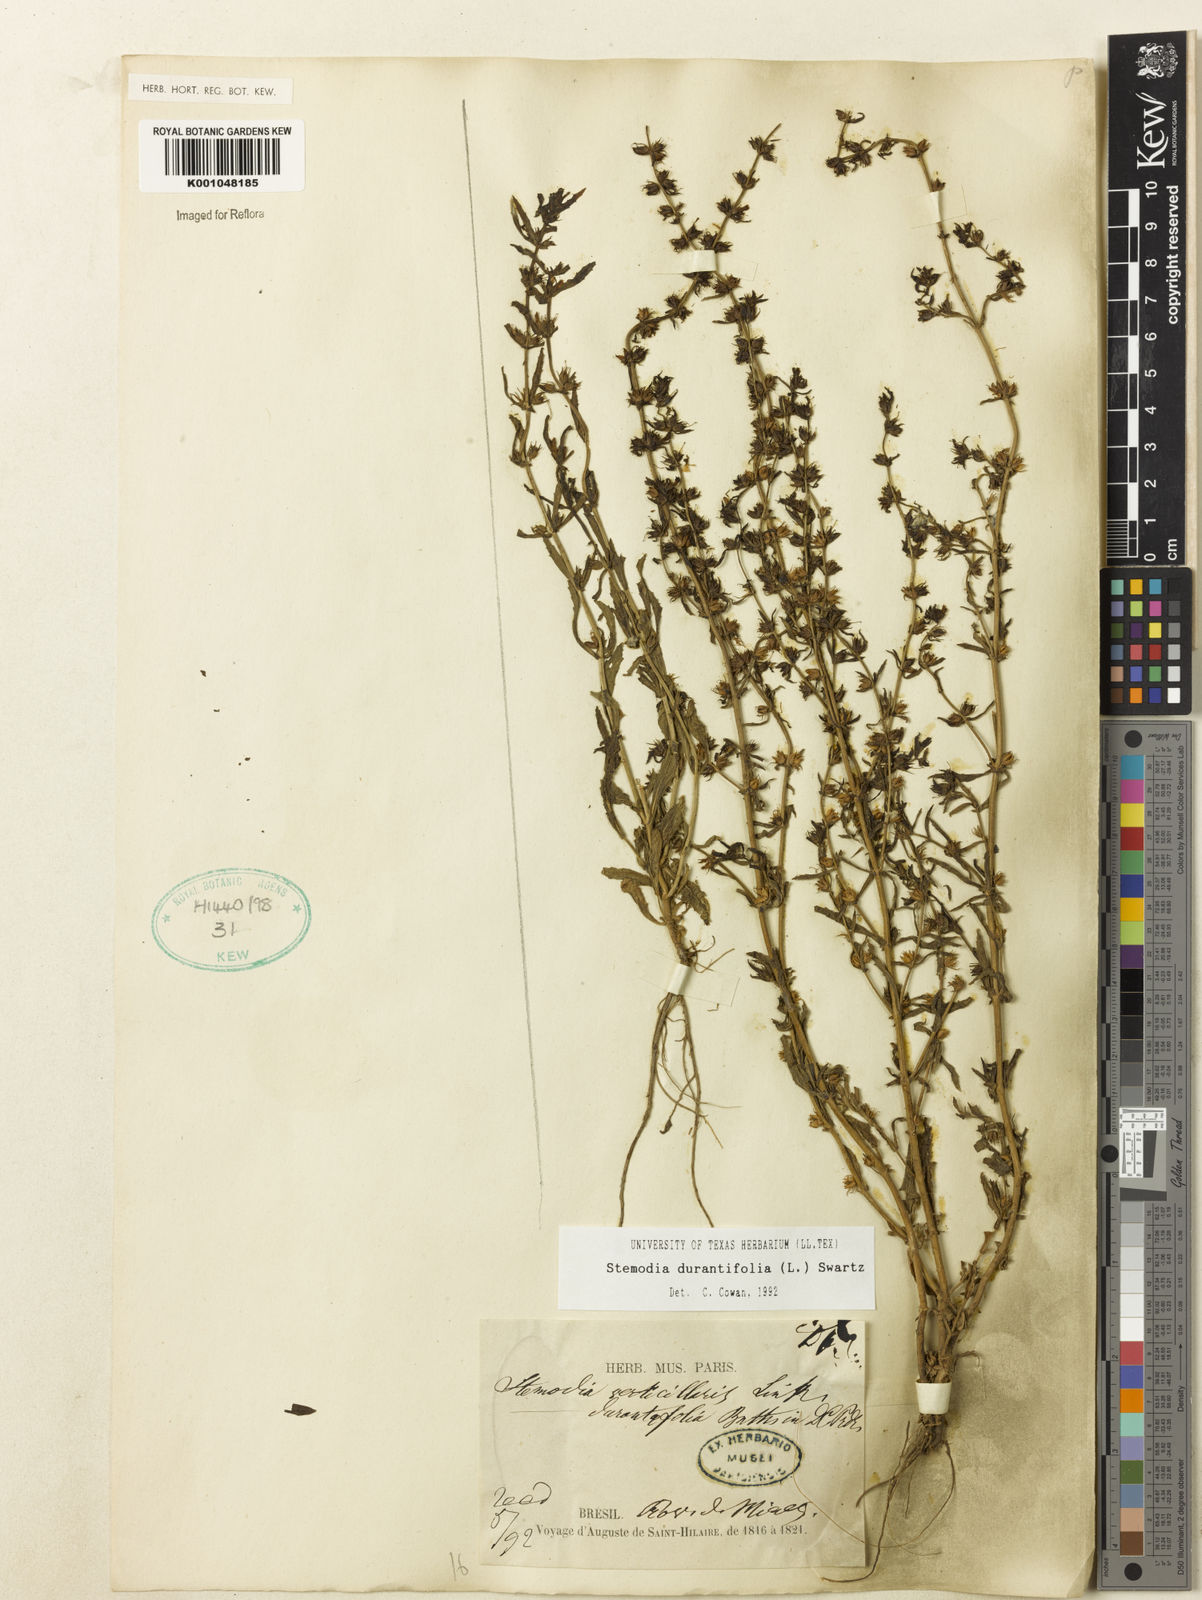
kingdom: Plantae
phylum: Tracheophyta
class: Magnoliopsida
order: Lamiales
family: Plantaginaceae
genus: Stemodia
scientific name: Stemodia durantifolia
